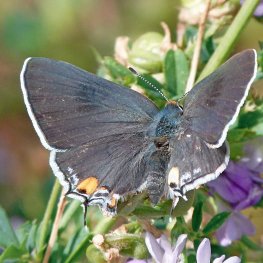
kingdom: Animalia
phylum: Arthropoda
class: Insecta
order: Lepidoptera
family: Lycaenidae
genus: Strymon
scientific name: Strymon melinus
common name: Gray Hairstreak
